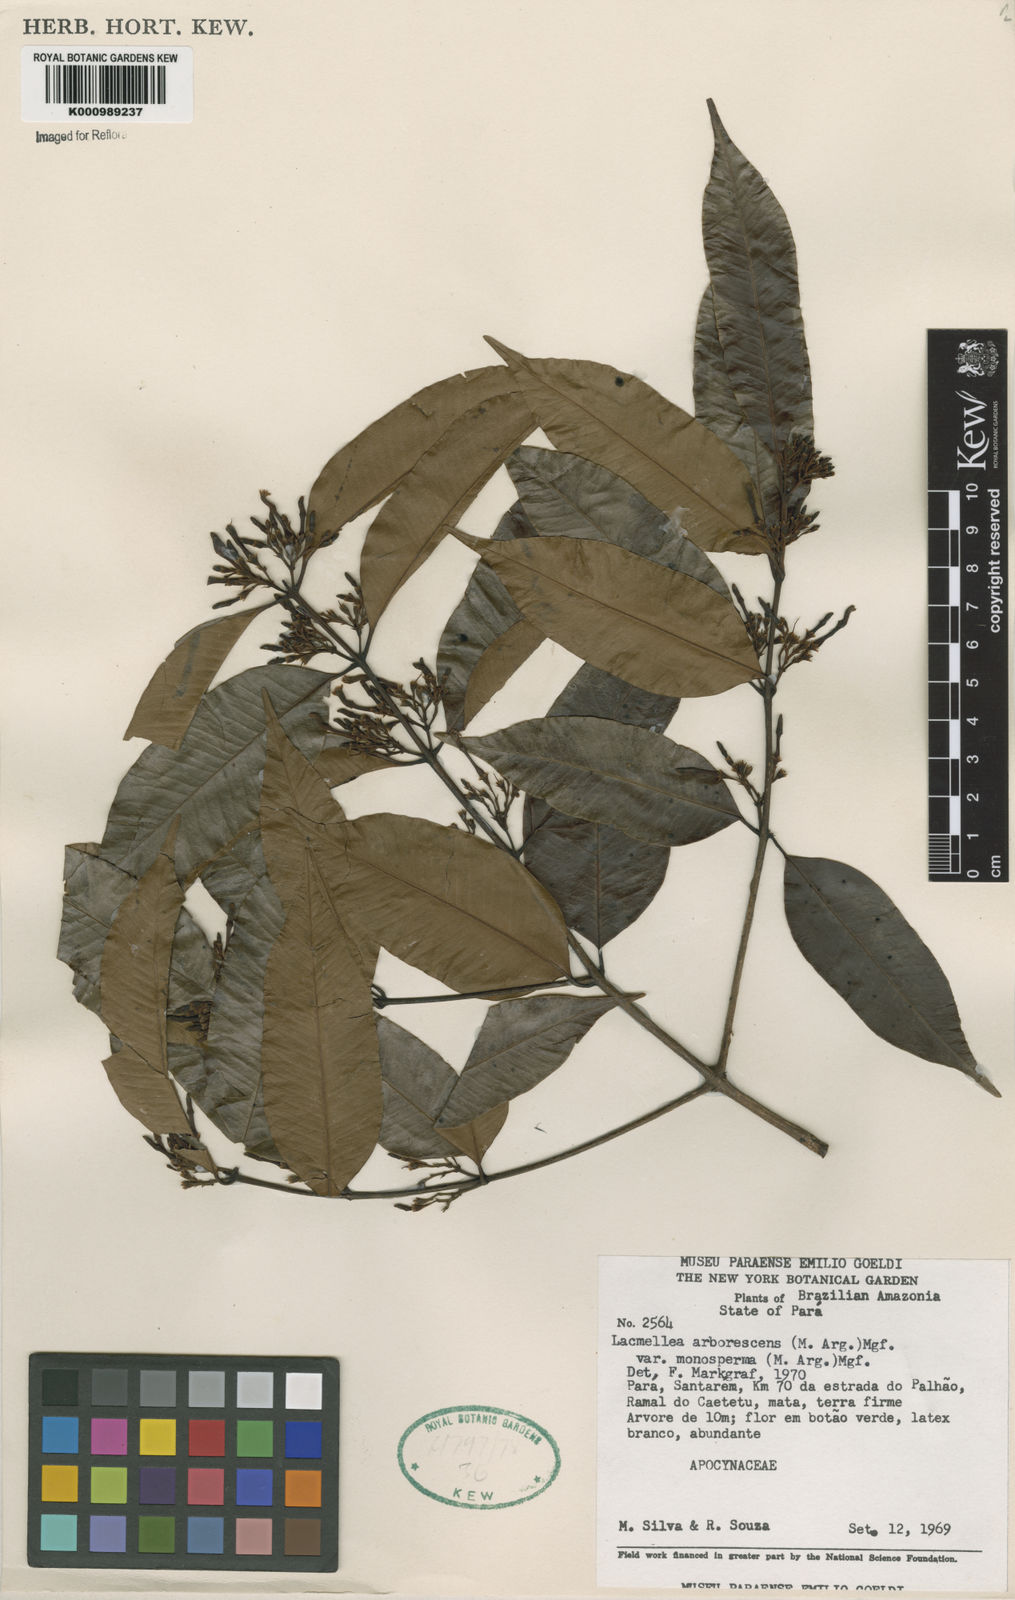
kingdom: Plantae
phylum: Tracheophyta
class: Magnoliopsida
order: Gentianales
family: Apocynaceae
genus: Lacmellea
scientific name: Lacmellea
